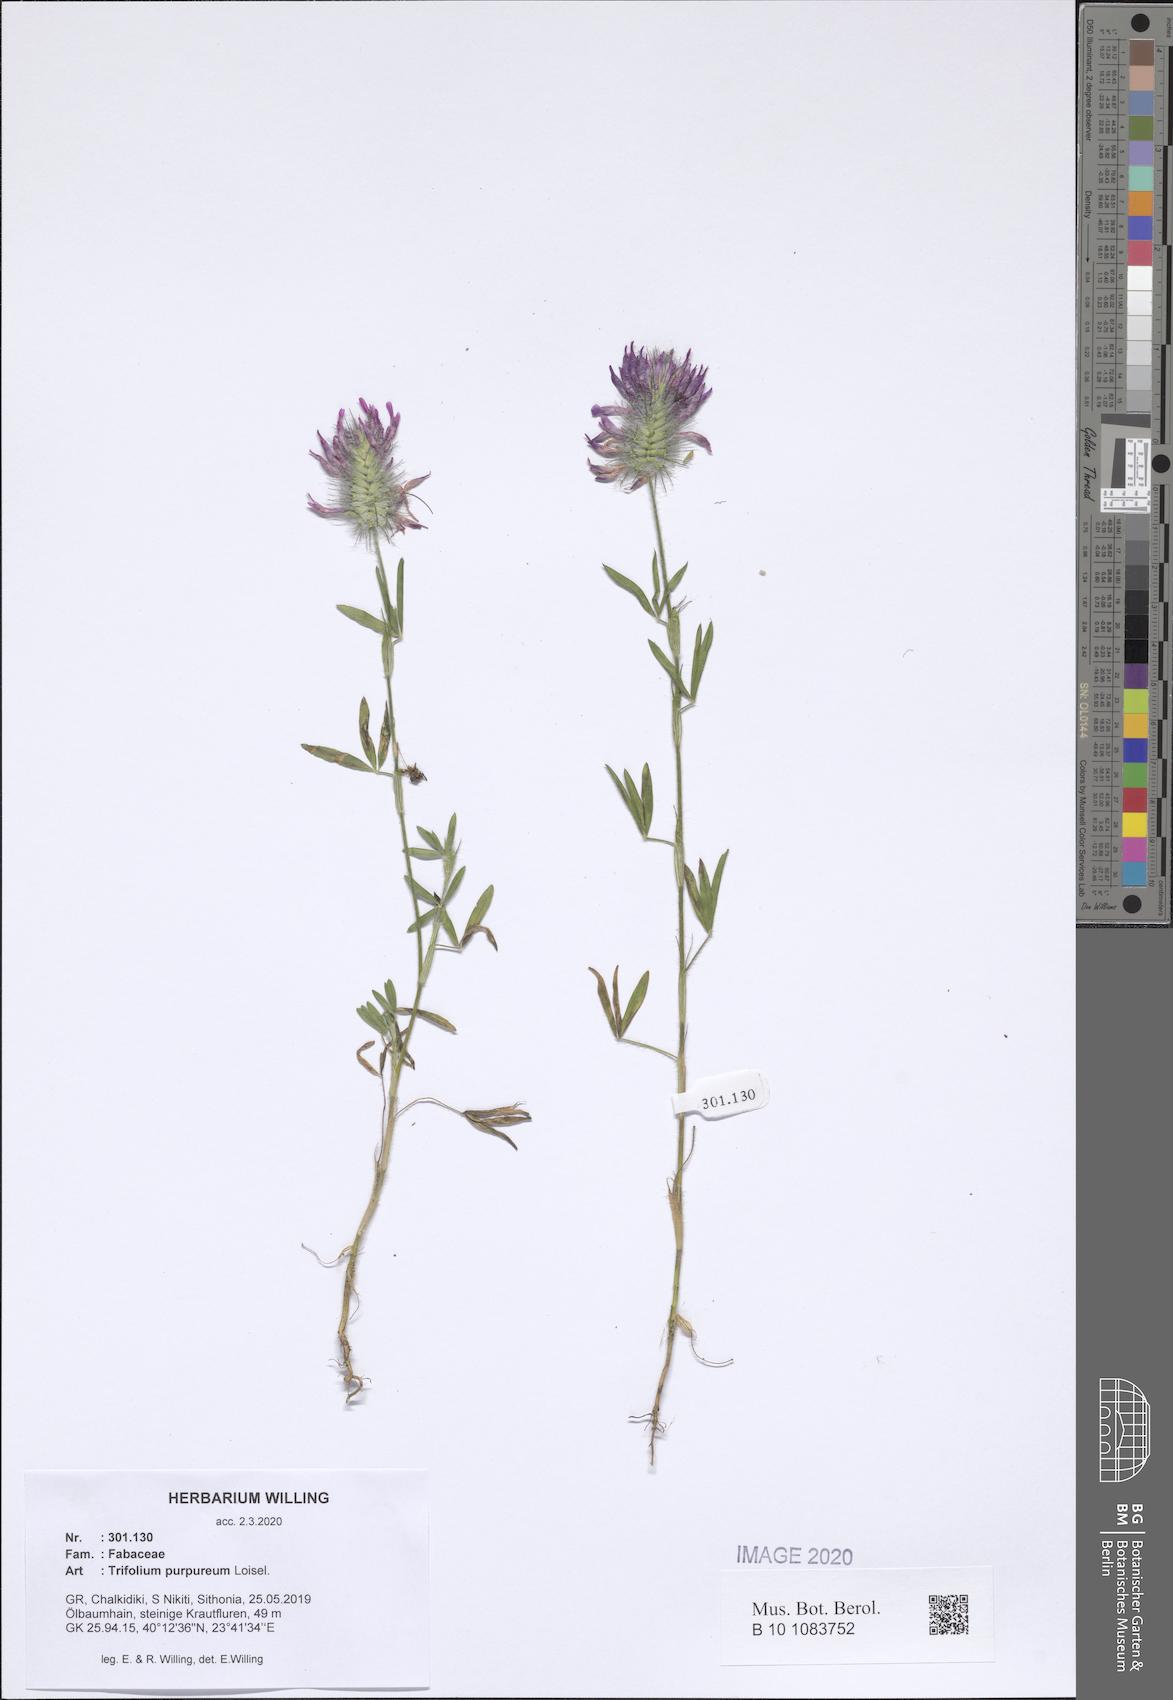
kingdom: Plantae
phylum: Tracheophyta
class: Magnoliopsida
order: Fabales
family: Fabaceae
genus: Trifolium
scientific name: Trifolium purpureum
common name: Purple clover
